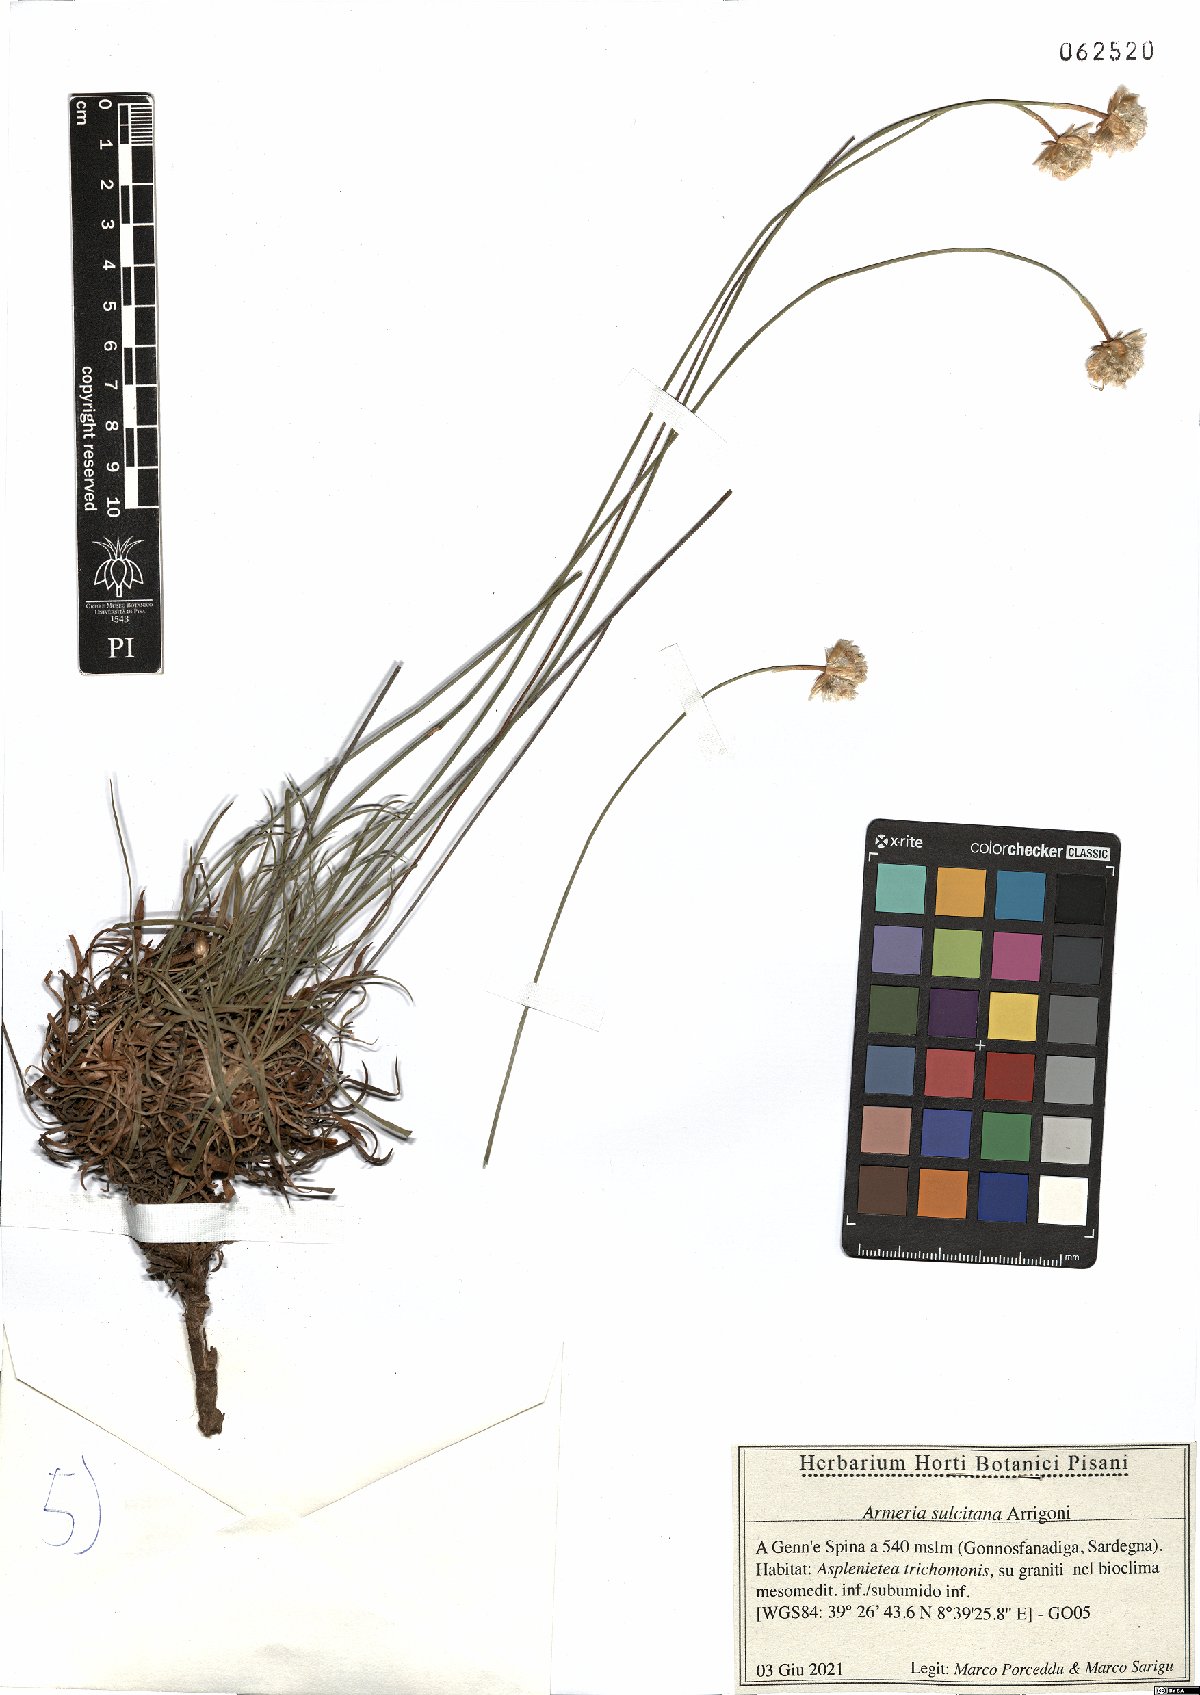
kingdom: Plantae
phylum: Tracheophyta
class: Magnoliopsida
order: Caryophyllales
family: Plumbaginaceae
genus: Armeria
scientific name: Armeria sulcitana
